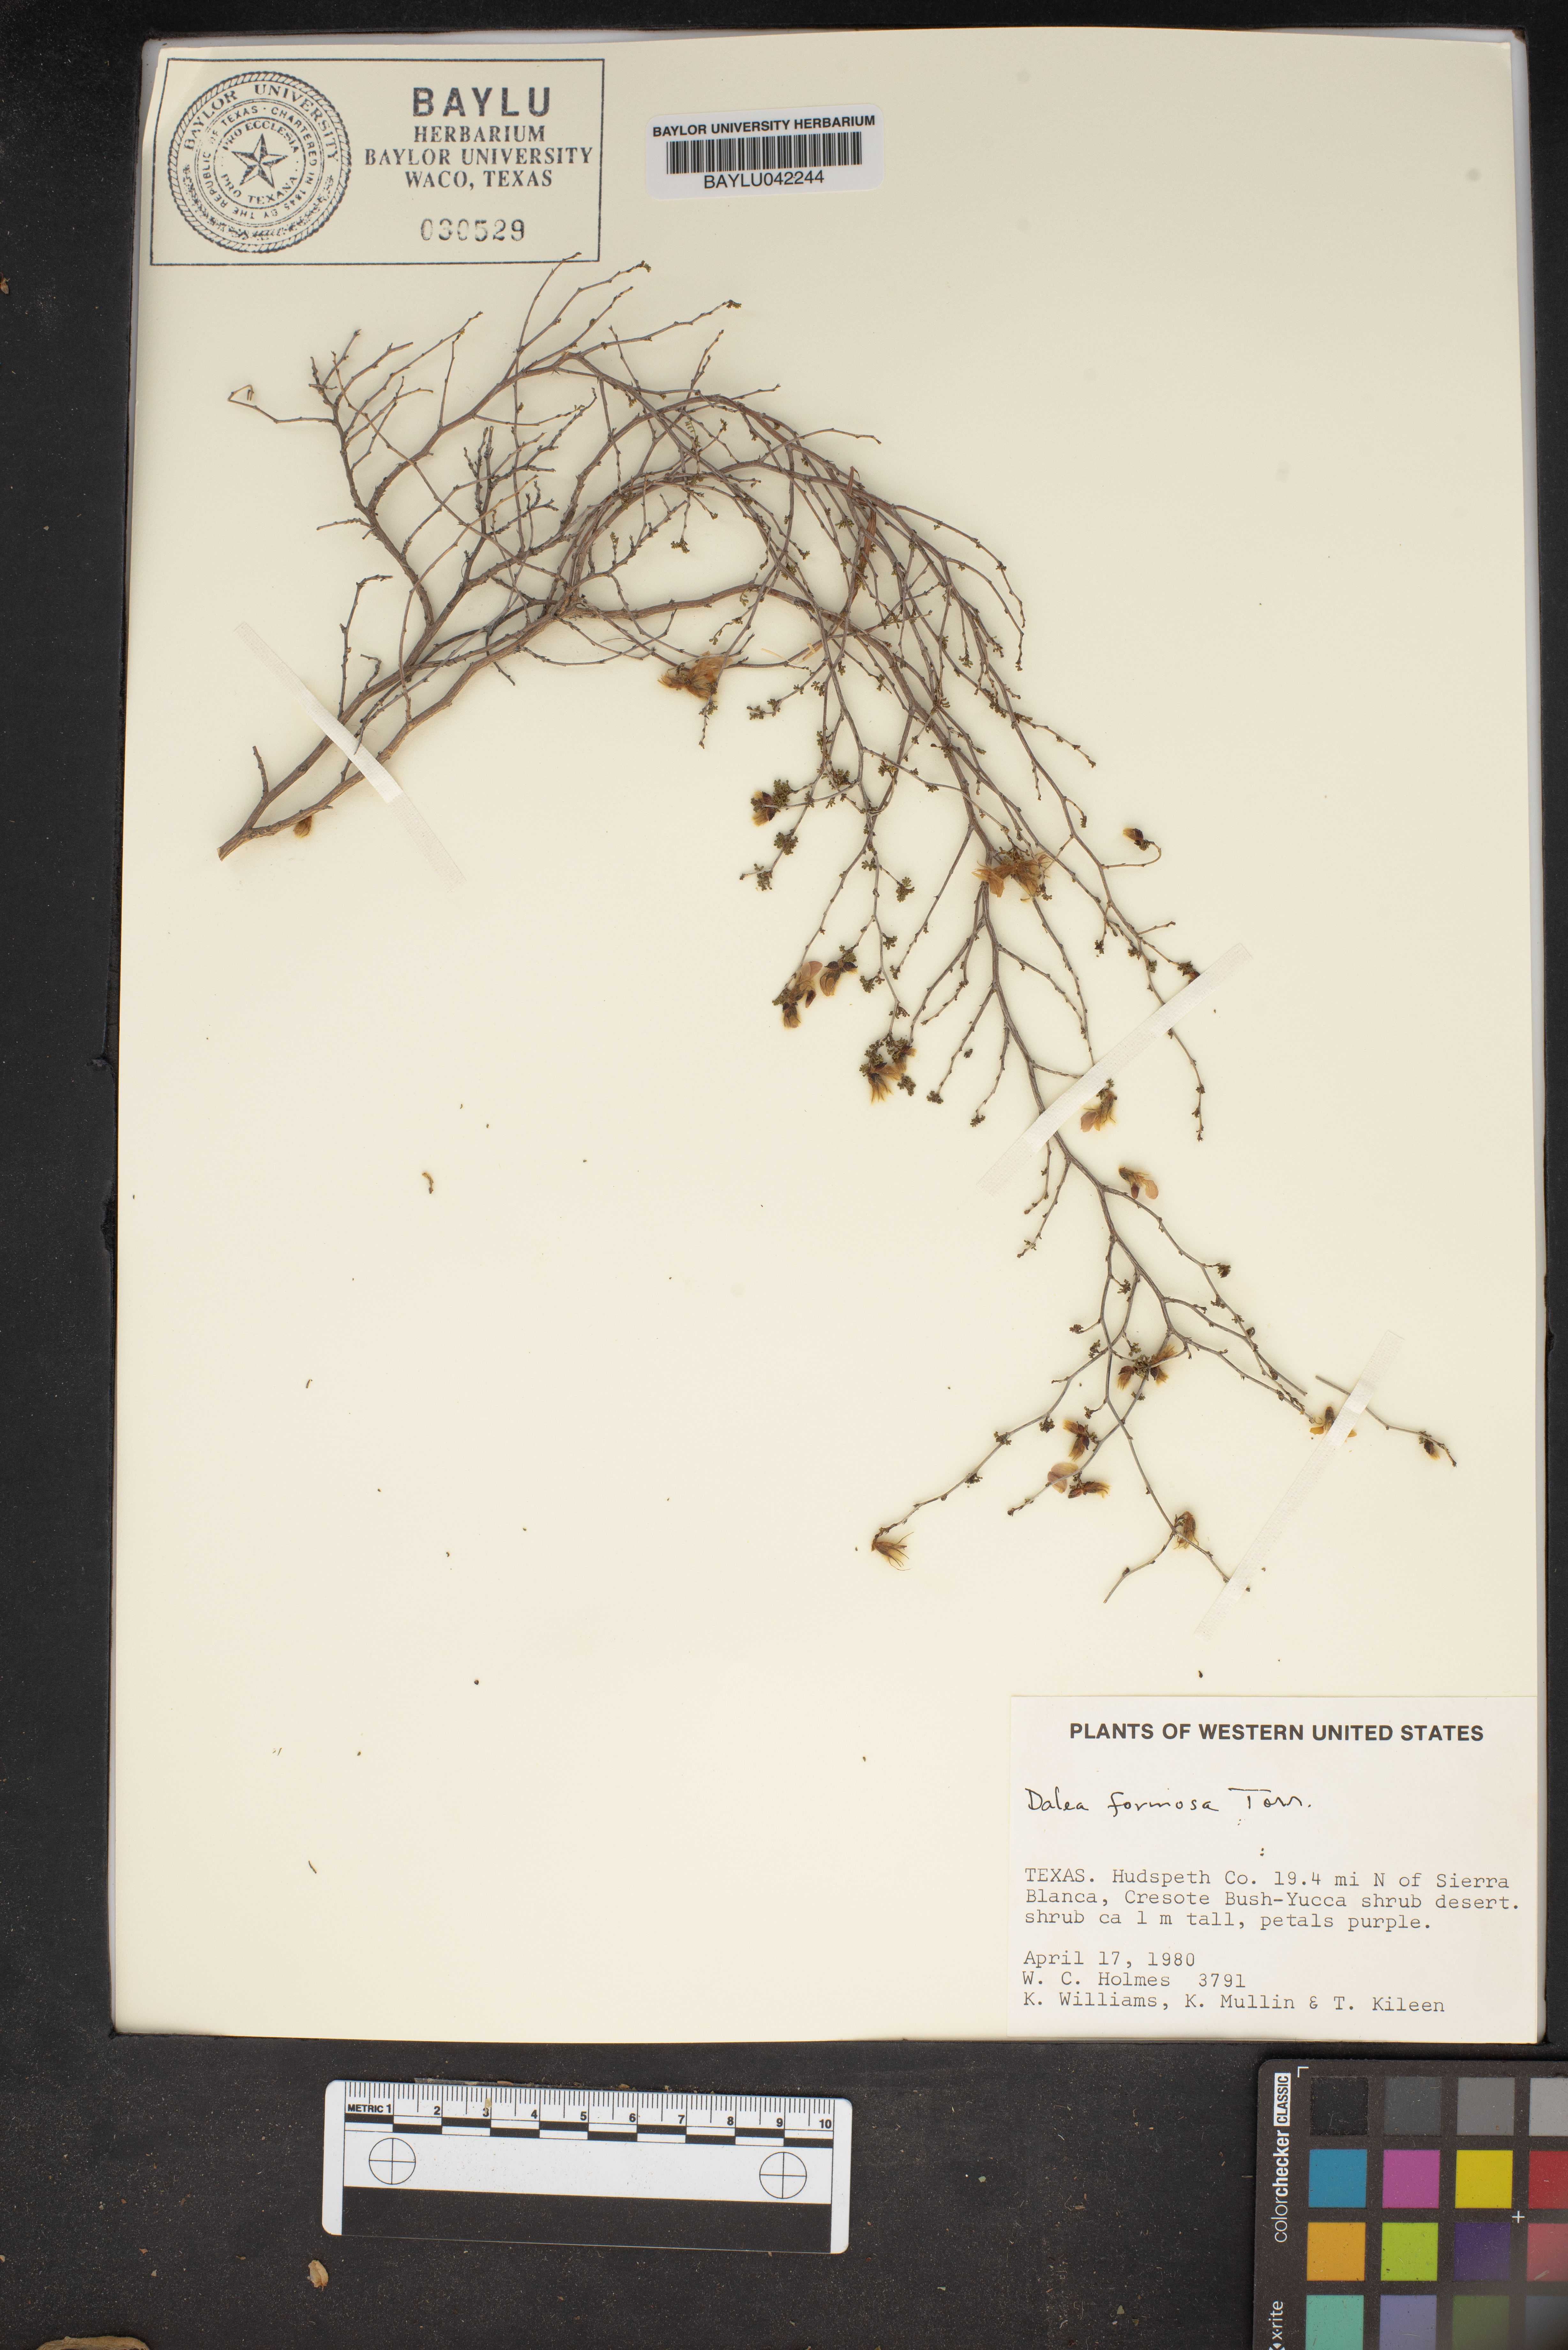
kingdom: Plantae
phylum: Tracheophyta
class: Magnoliopsida
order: Fabales
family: Fabaceae
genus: Dalea
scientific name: Dalea formosa
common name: Feather-plume dalea
